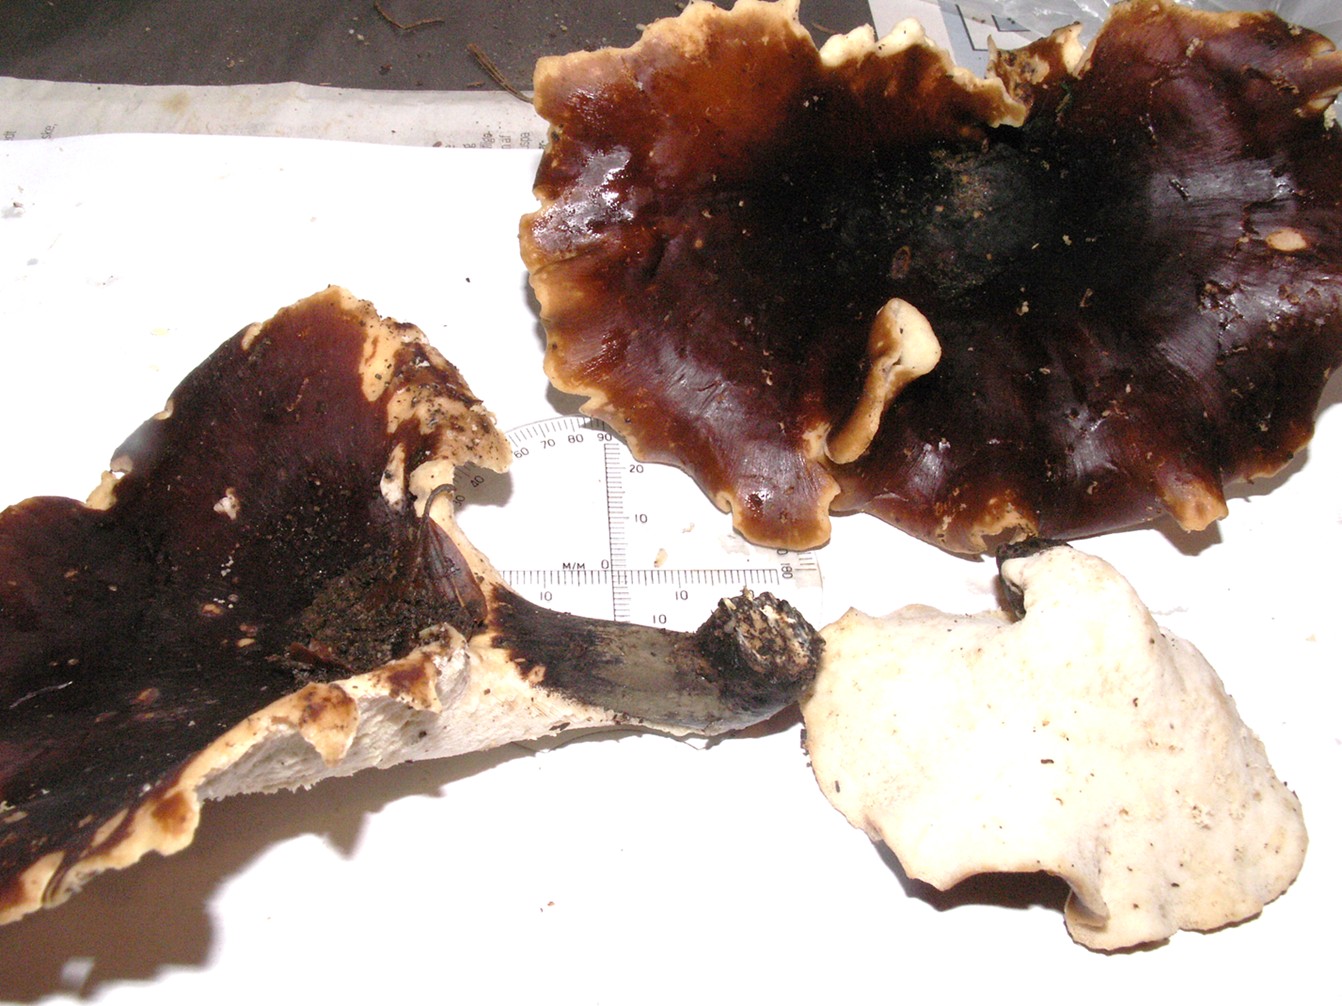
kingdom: Fungi
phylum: Basidiomycota
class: Agaricomycetes
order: Polyporales
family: Polyporaceae
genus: Picipes
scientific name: Picipes badius
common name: kastaniebrun stilkporesvamp
